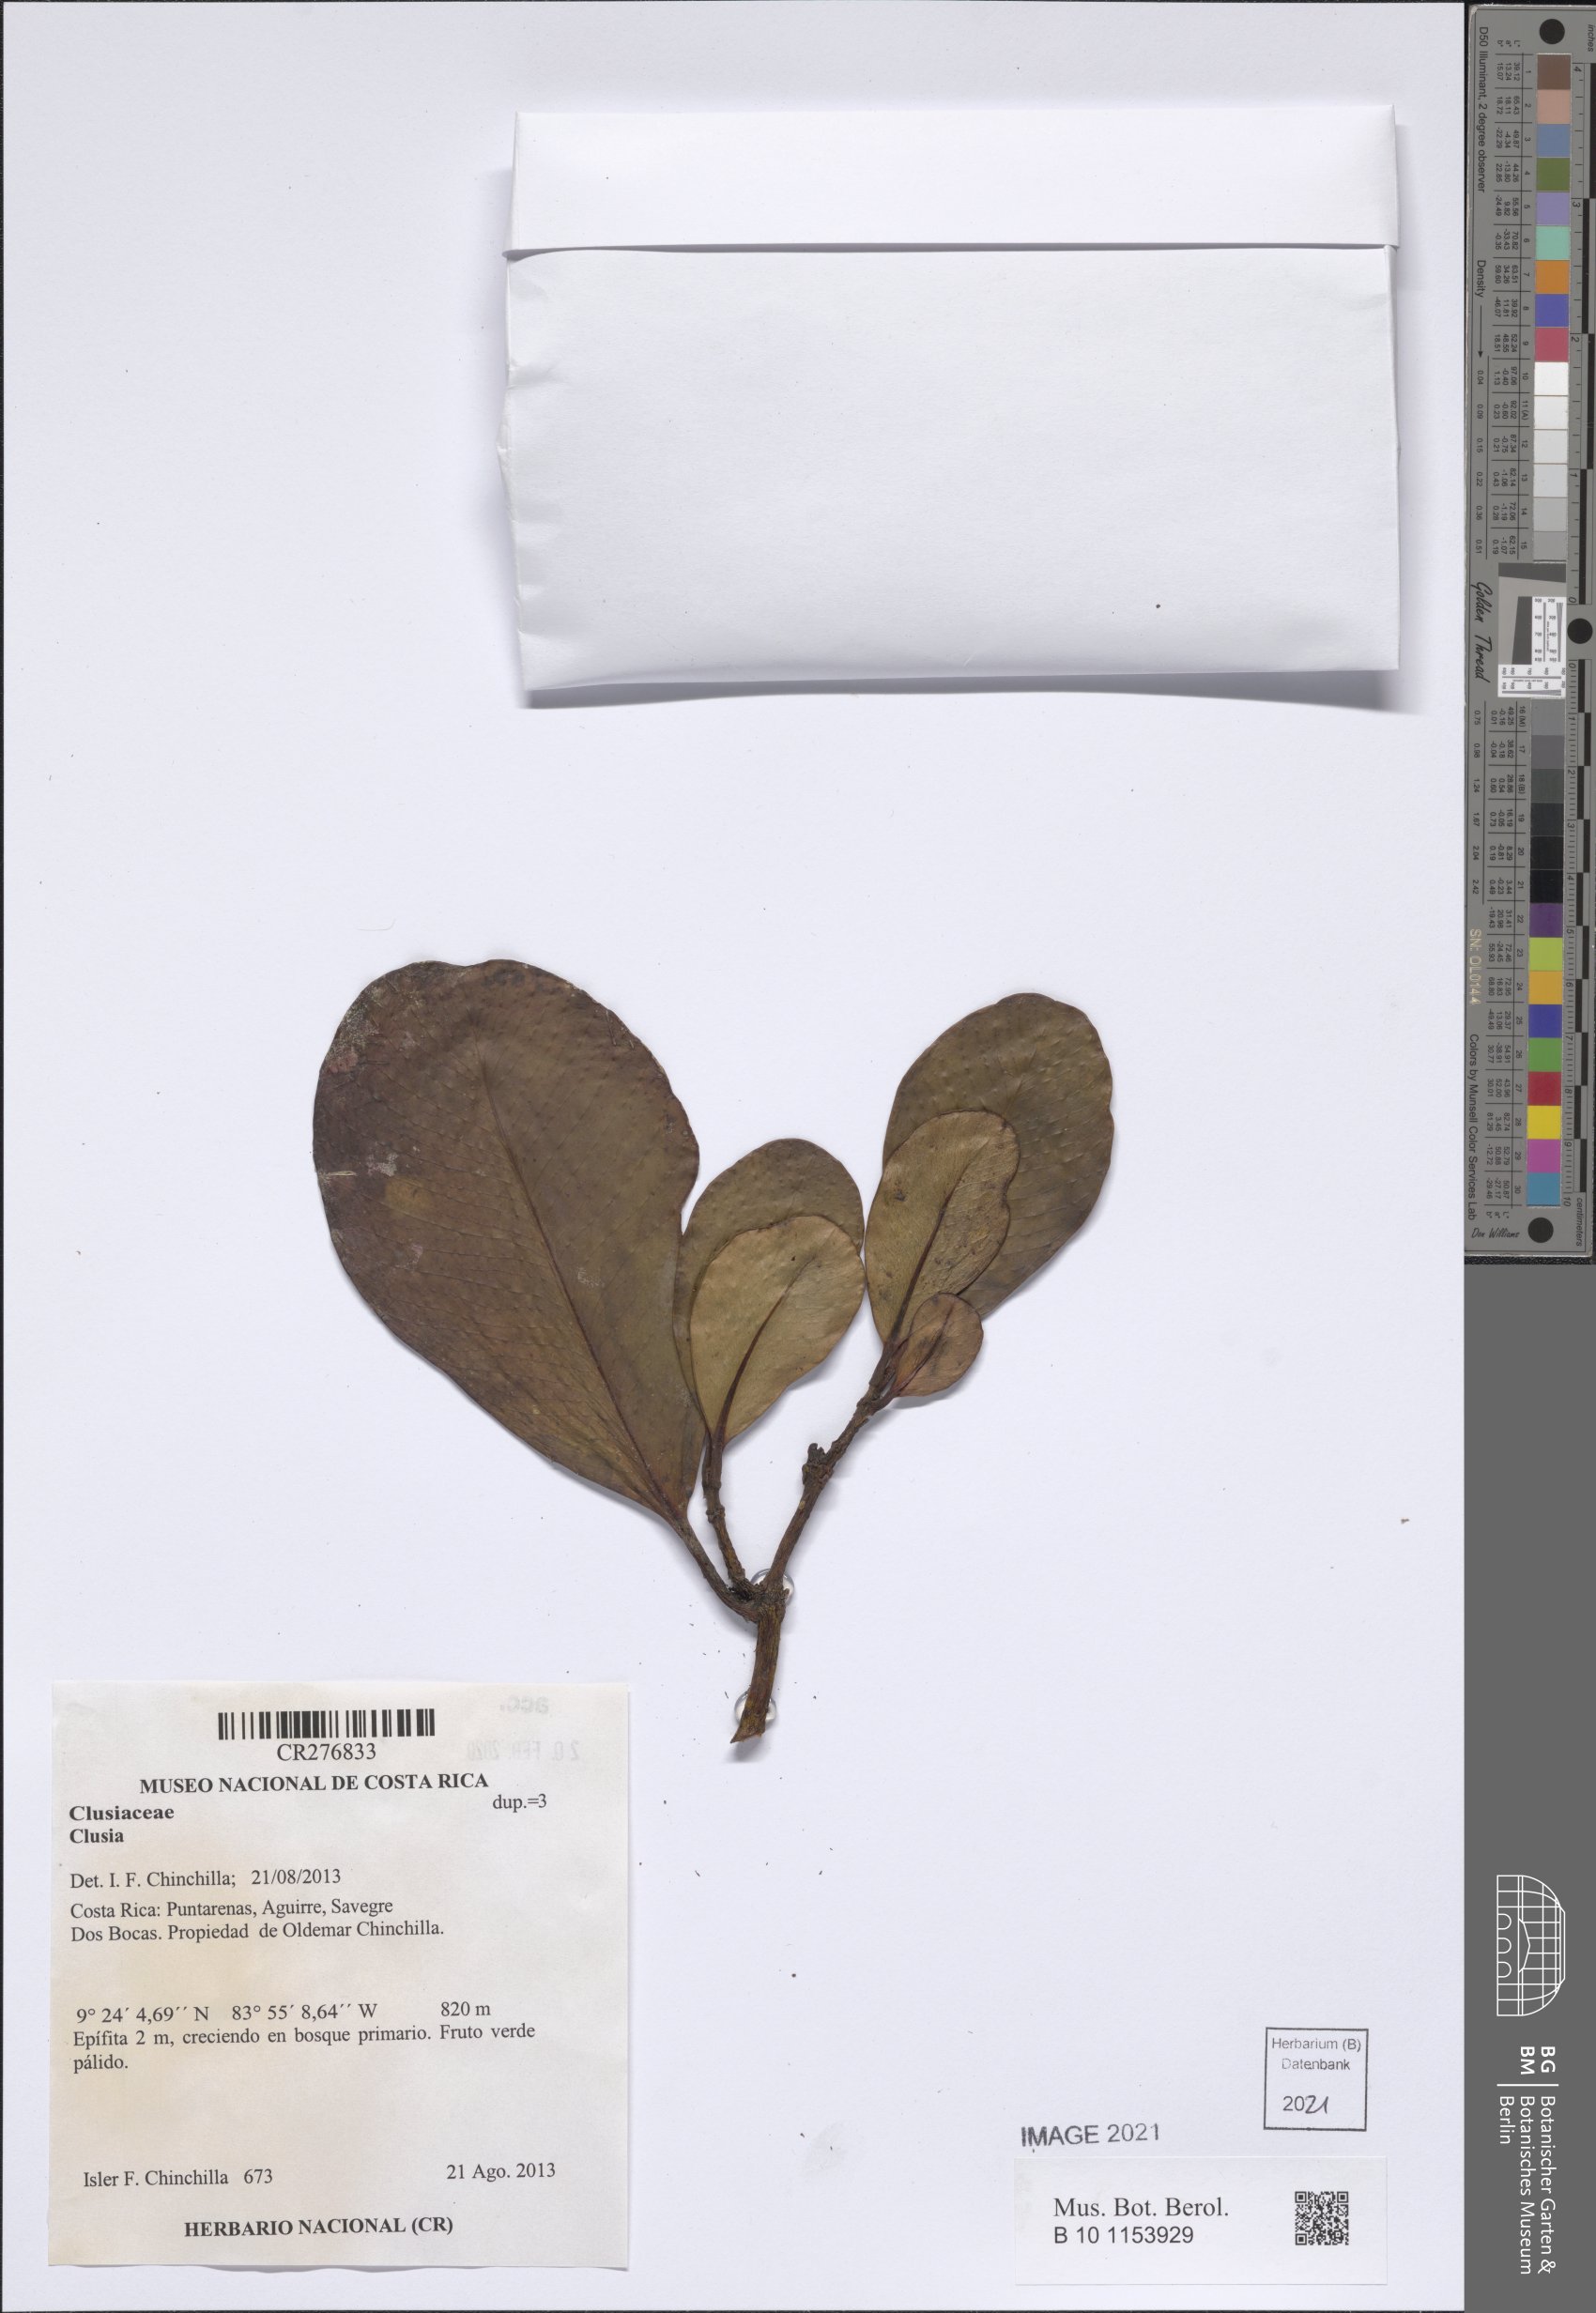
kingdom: Plantae
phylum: Tracheophyta
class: Magnoliopsida
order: Malpighiales
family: Clusiaceae
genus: Clusia
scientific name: Clusia
